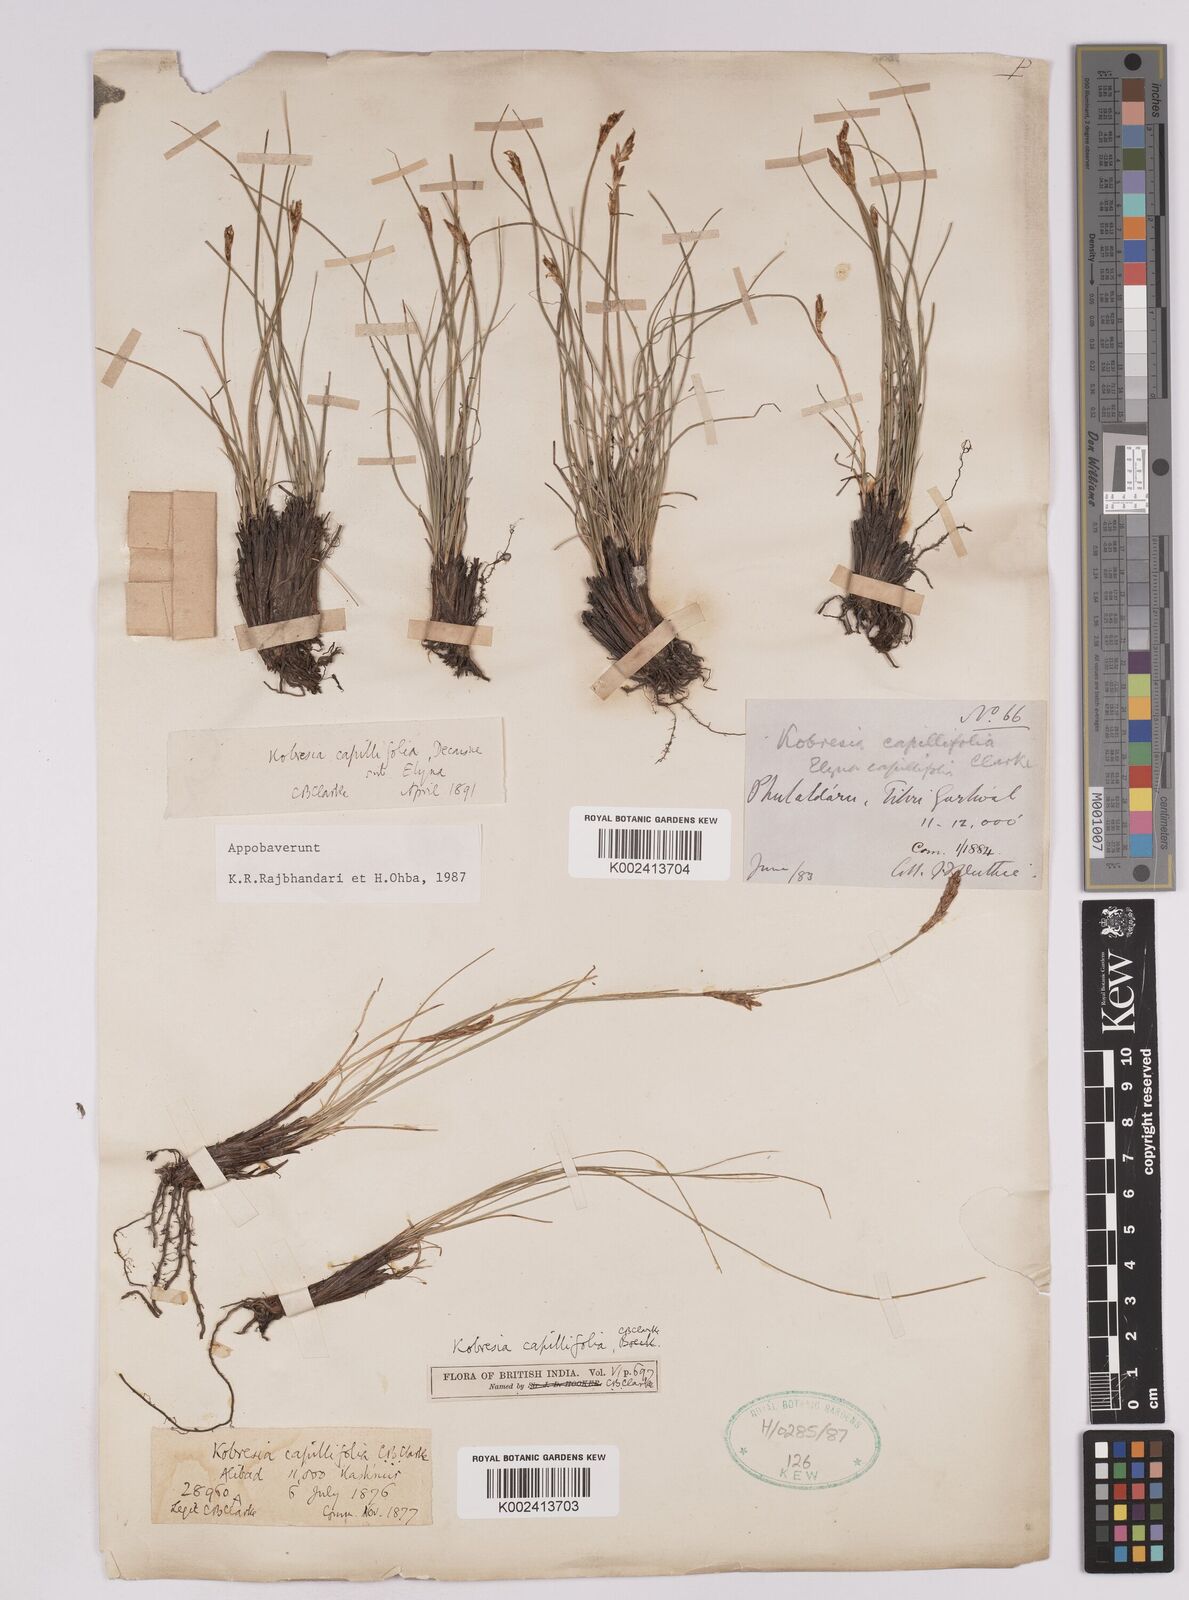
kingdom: Plantae
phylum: Tracheophyta
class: Liliopsida
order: Poales
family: Cyperaceae
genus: Carex
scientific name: Carex capillifolia
